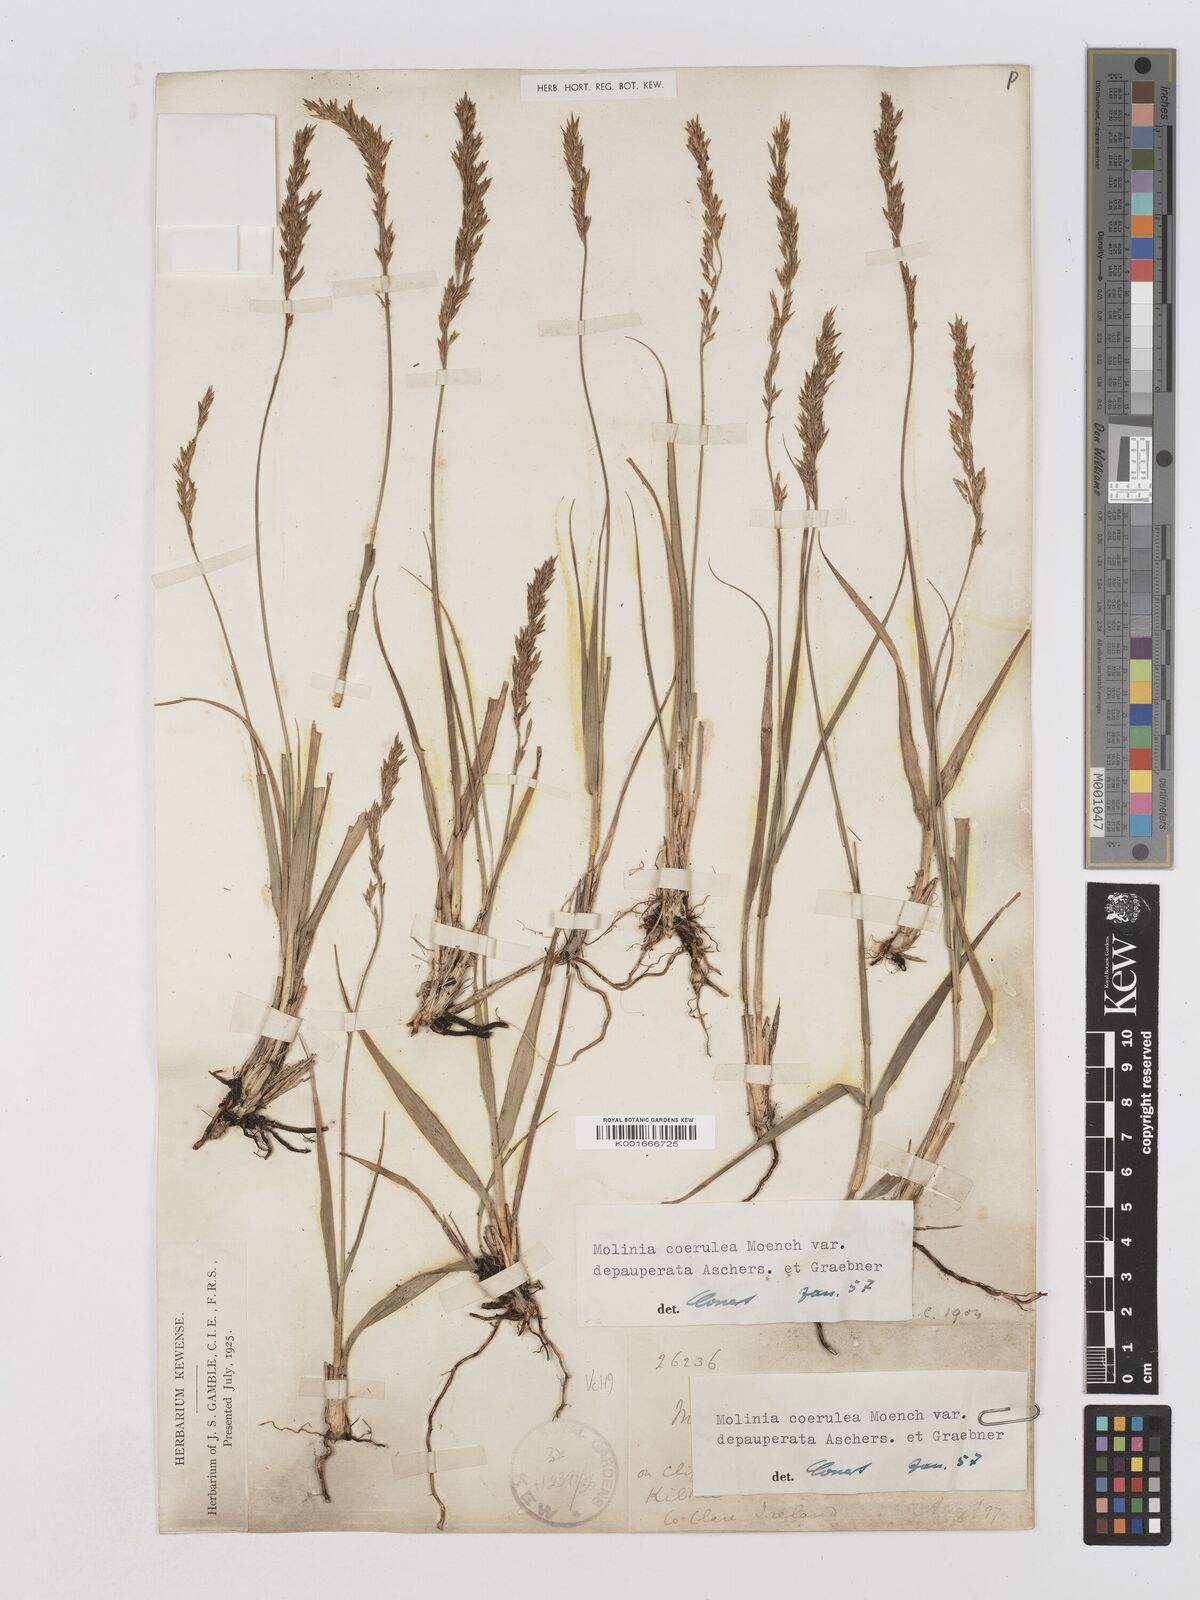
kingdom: Plantae
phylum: Tracheophyta
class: Liliopsida
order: Poales
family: Poaceae
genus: Molinia
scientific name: Molinia caerulea
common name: Purple moor-grass
